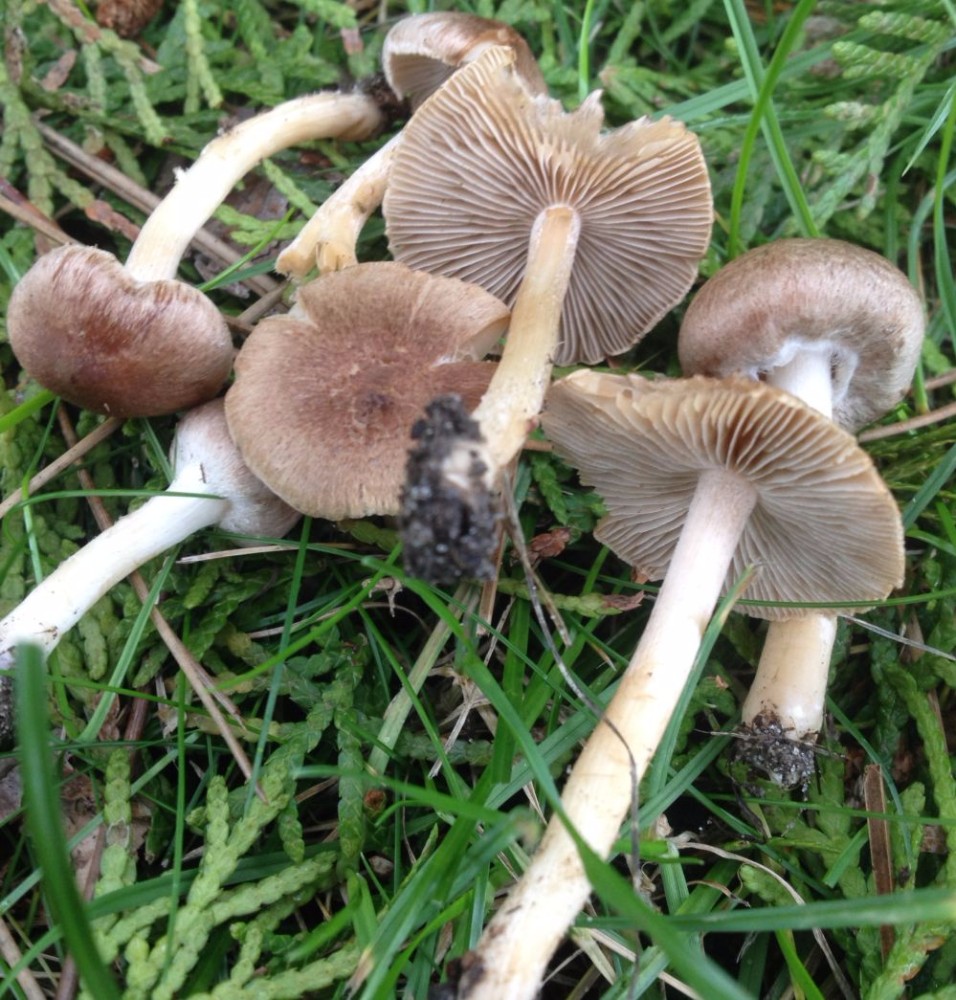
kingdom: Fungi
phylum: Basidiomycota
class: Agaricomycetes
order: Agaricales
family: Inocybaceae
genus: Inocybe
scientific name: Inocybe
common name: trævlhat
